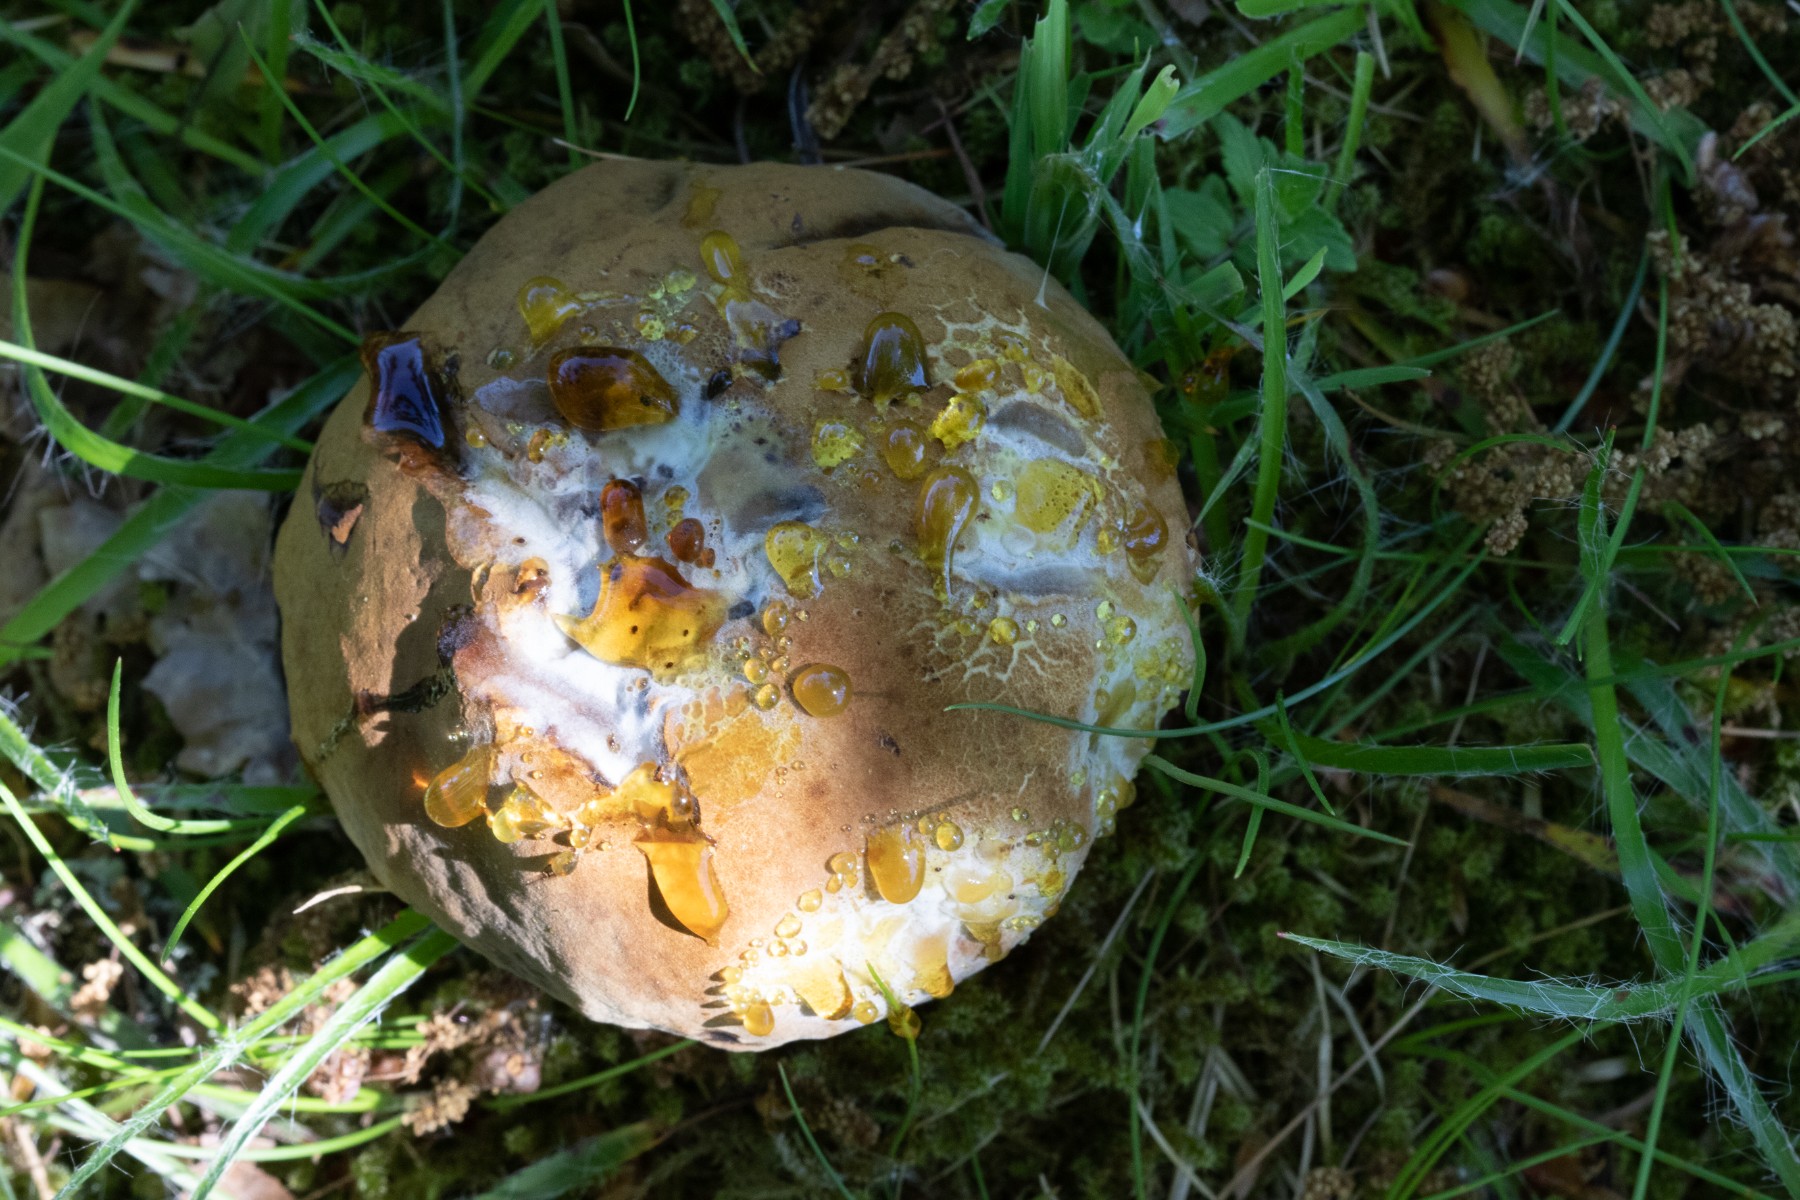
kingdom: Fungi
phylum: Basidiomycota
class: Agaricomycetes
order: Boletales
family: Boletaceae
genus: Neoboletus
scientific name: Neoboletus erythropus
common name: punktstokket indigorørhat
